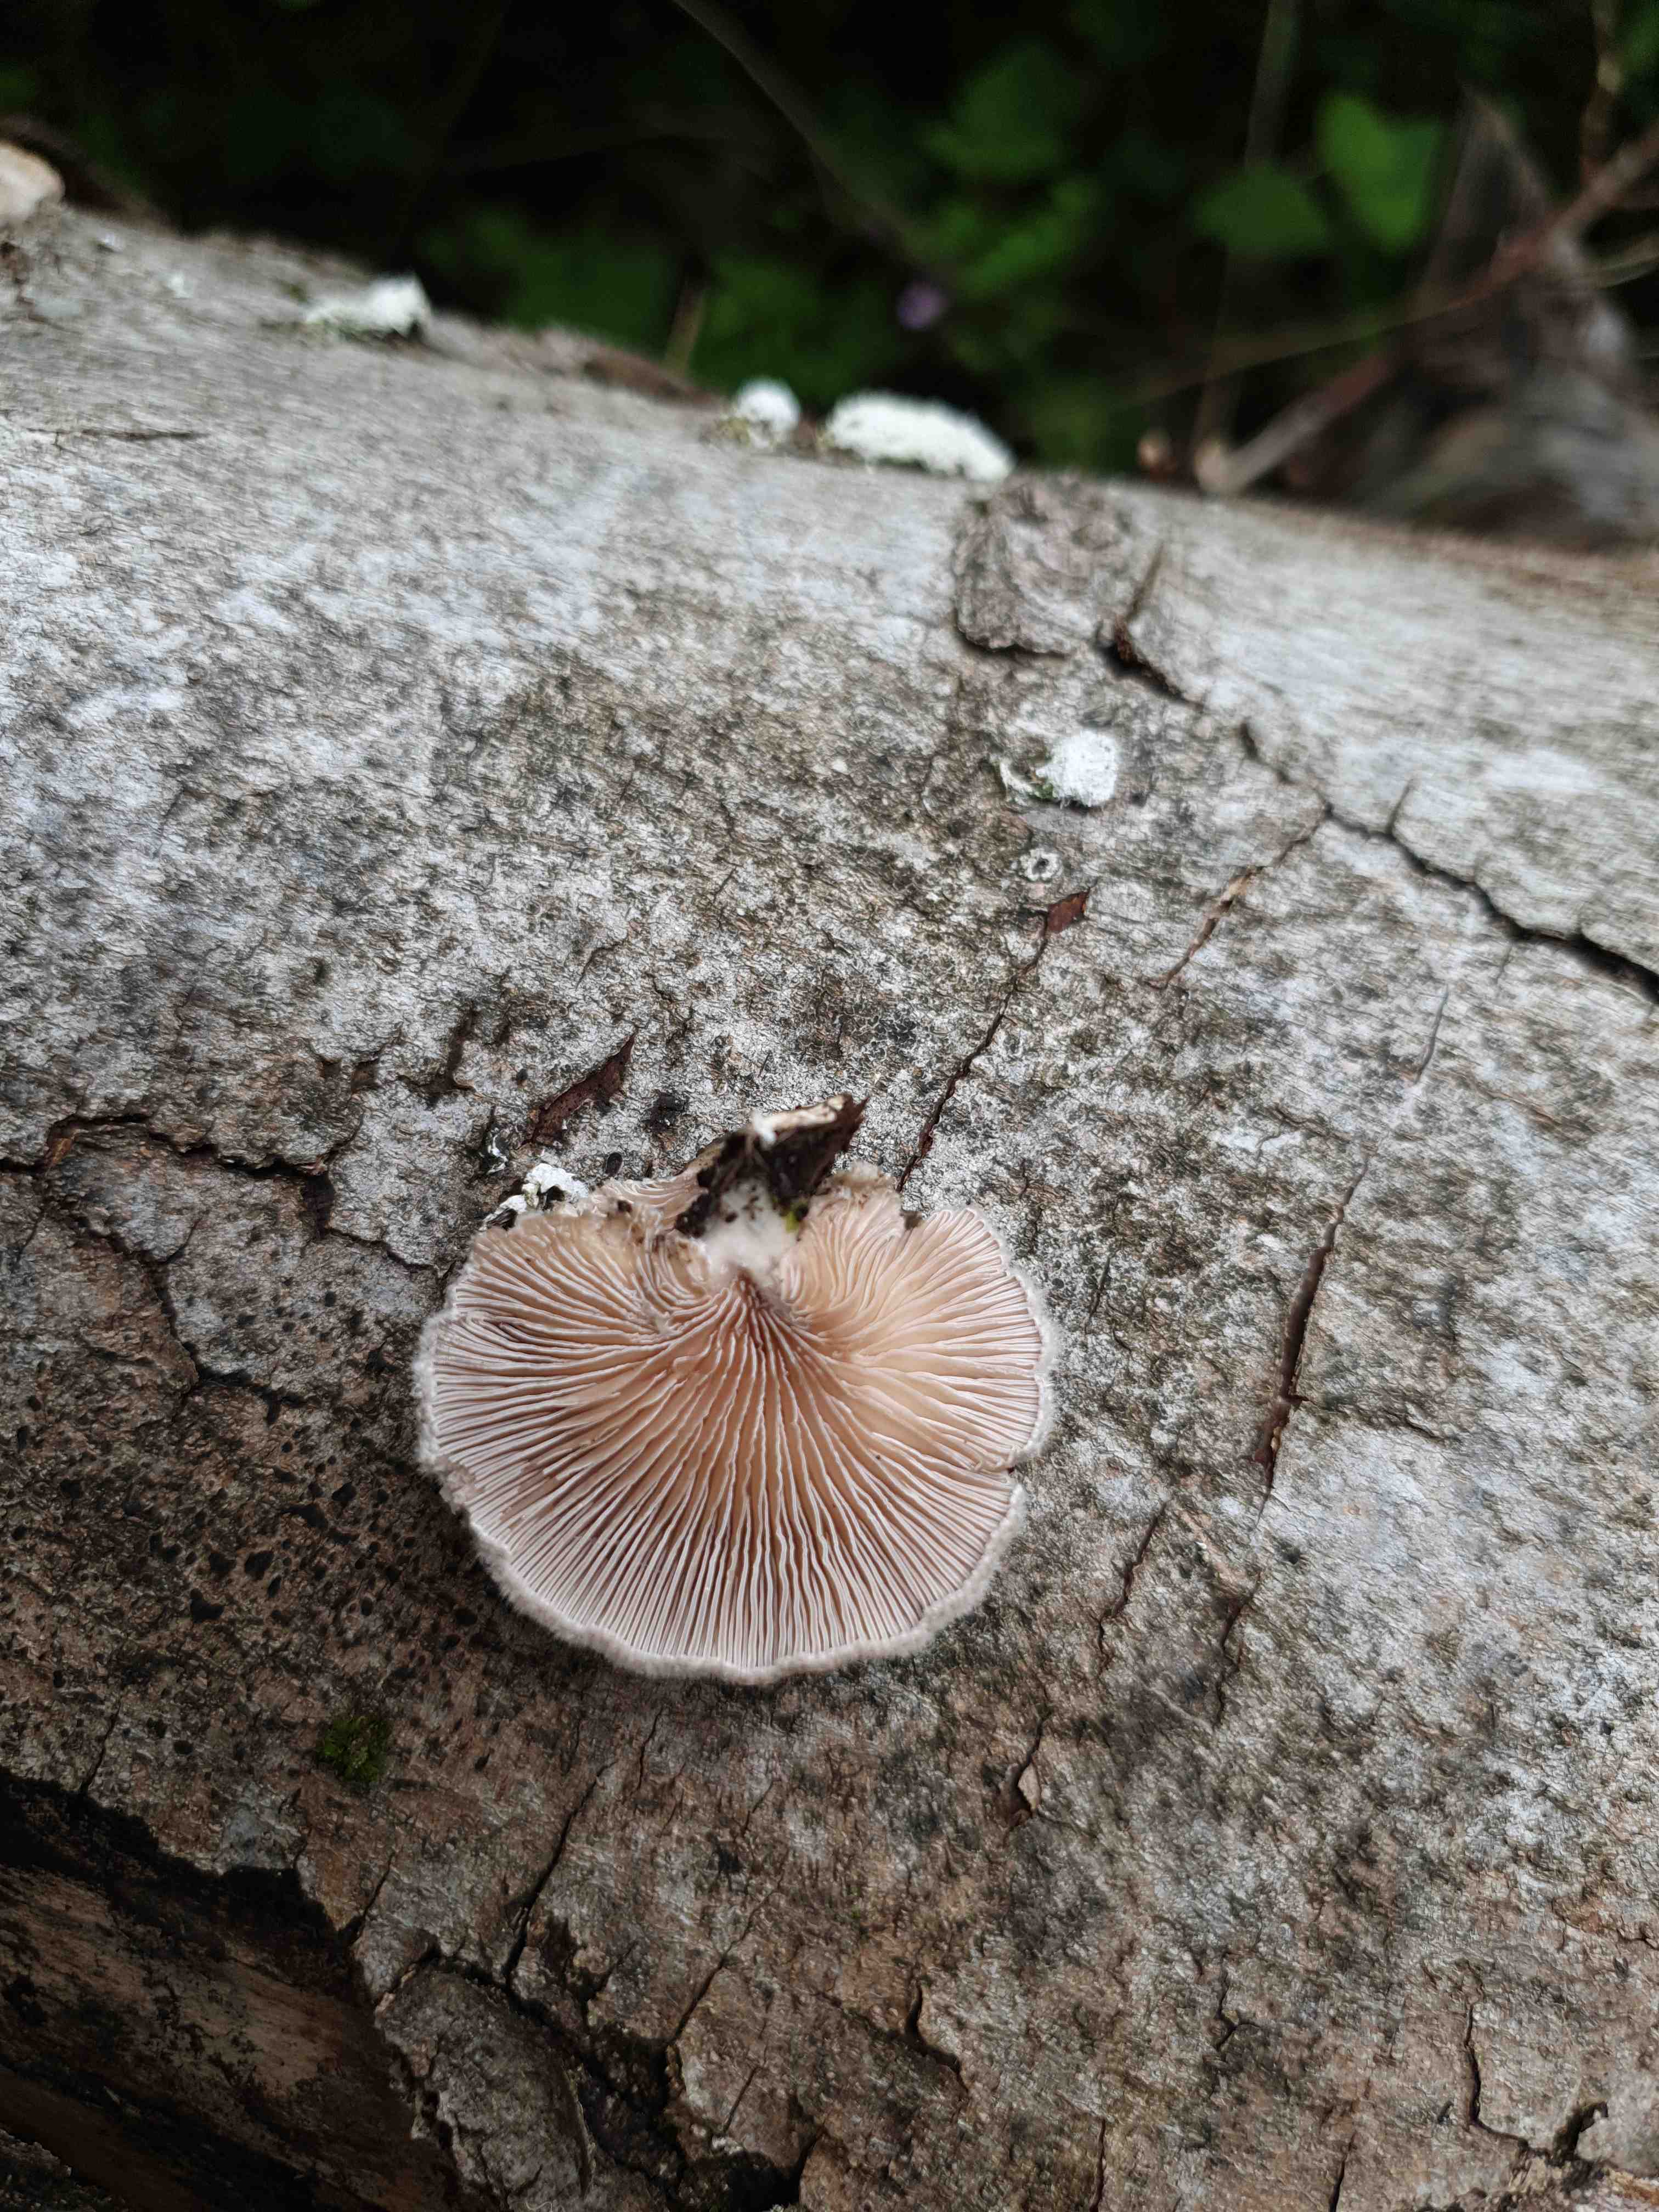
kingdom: Fungi
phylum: Basidiomycota
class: Agaricomycetes
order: Agaricales
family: Schizophyllaceae
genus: Schizophyllum
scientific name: Schizophyllum commune
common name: kløvblad
